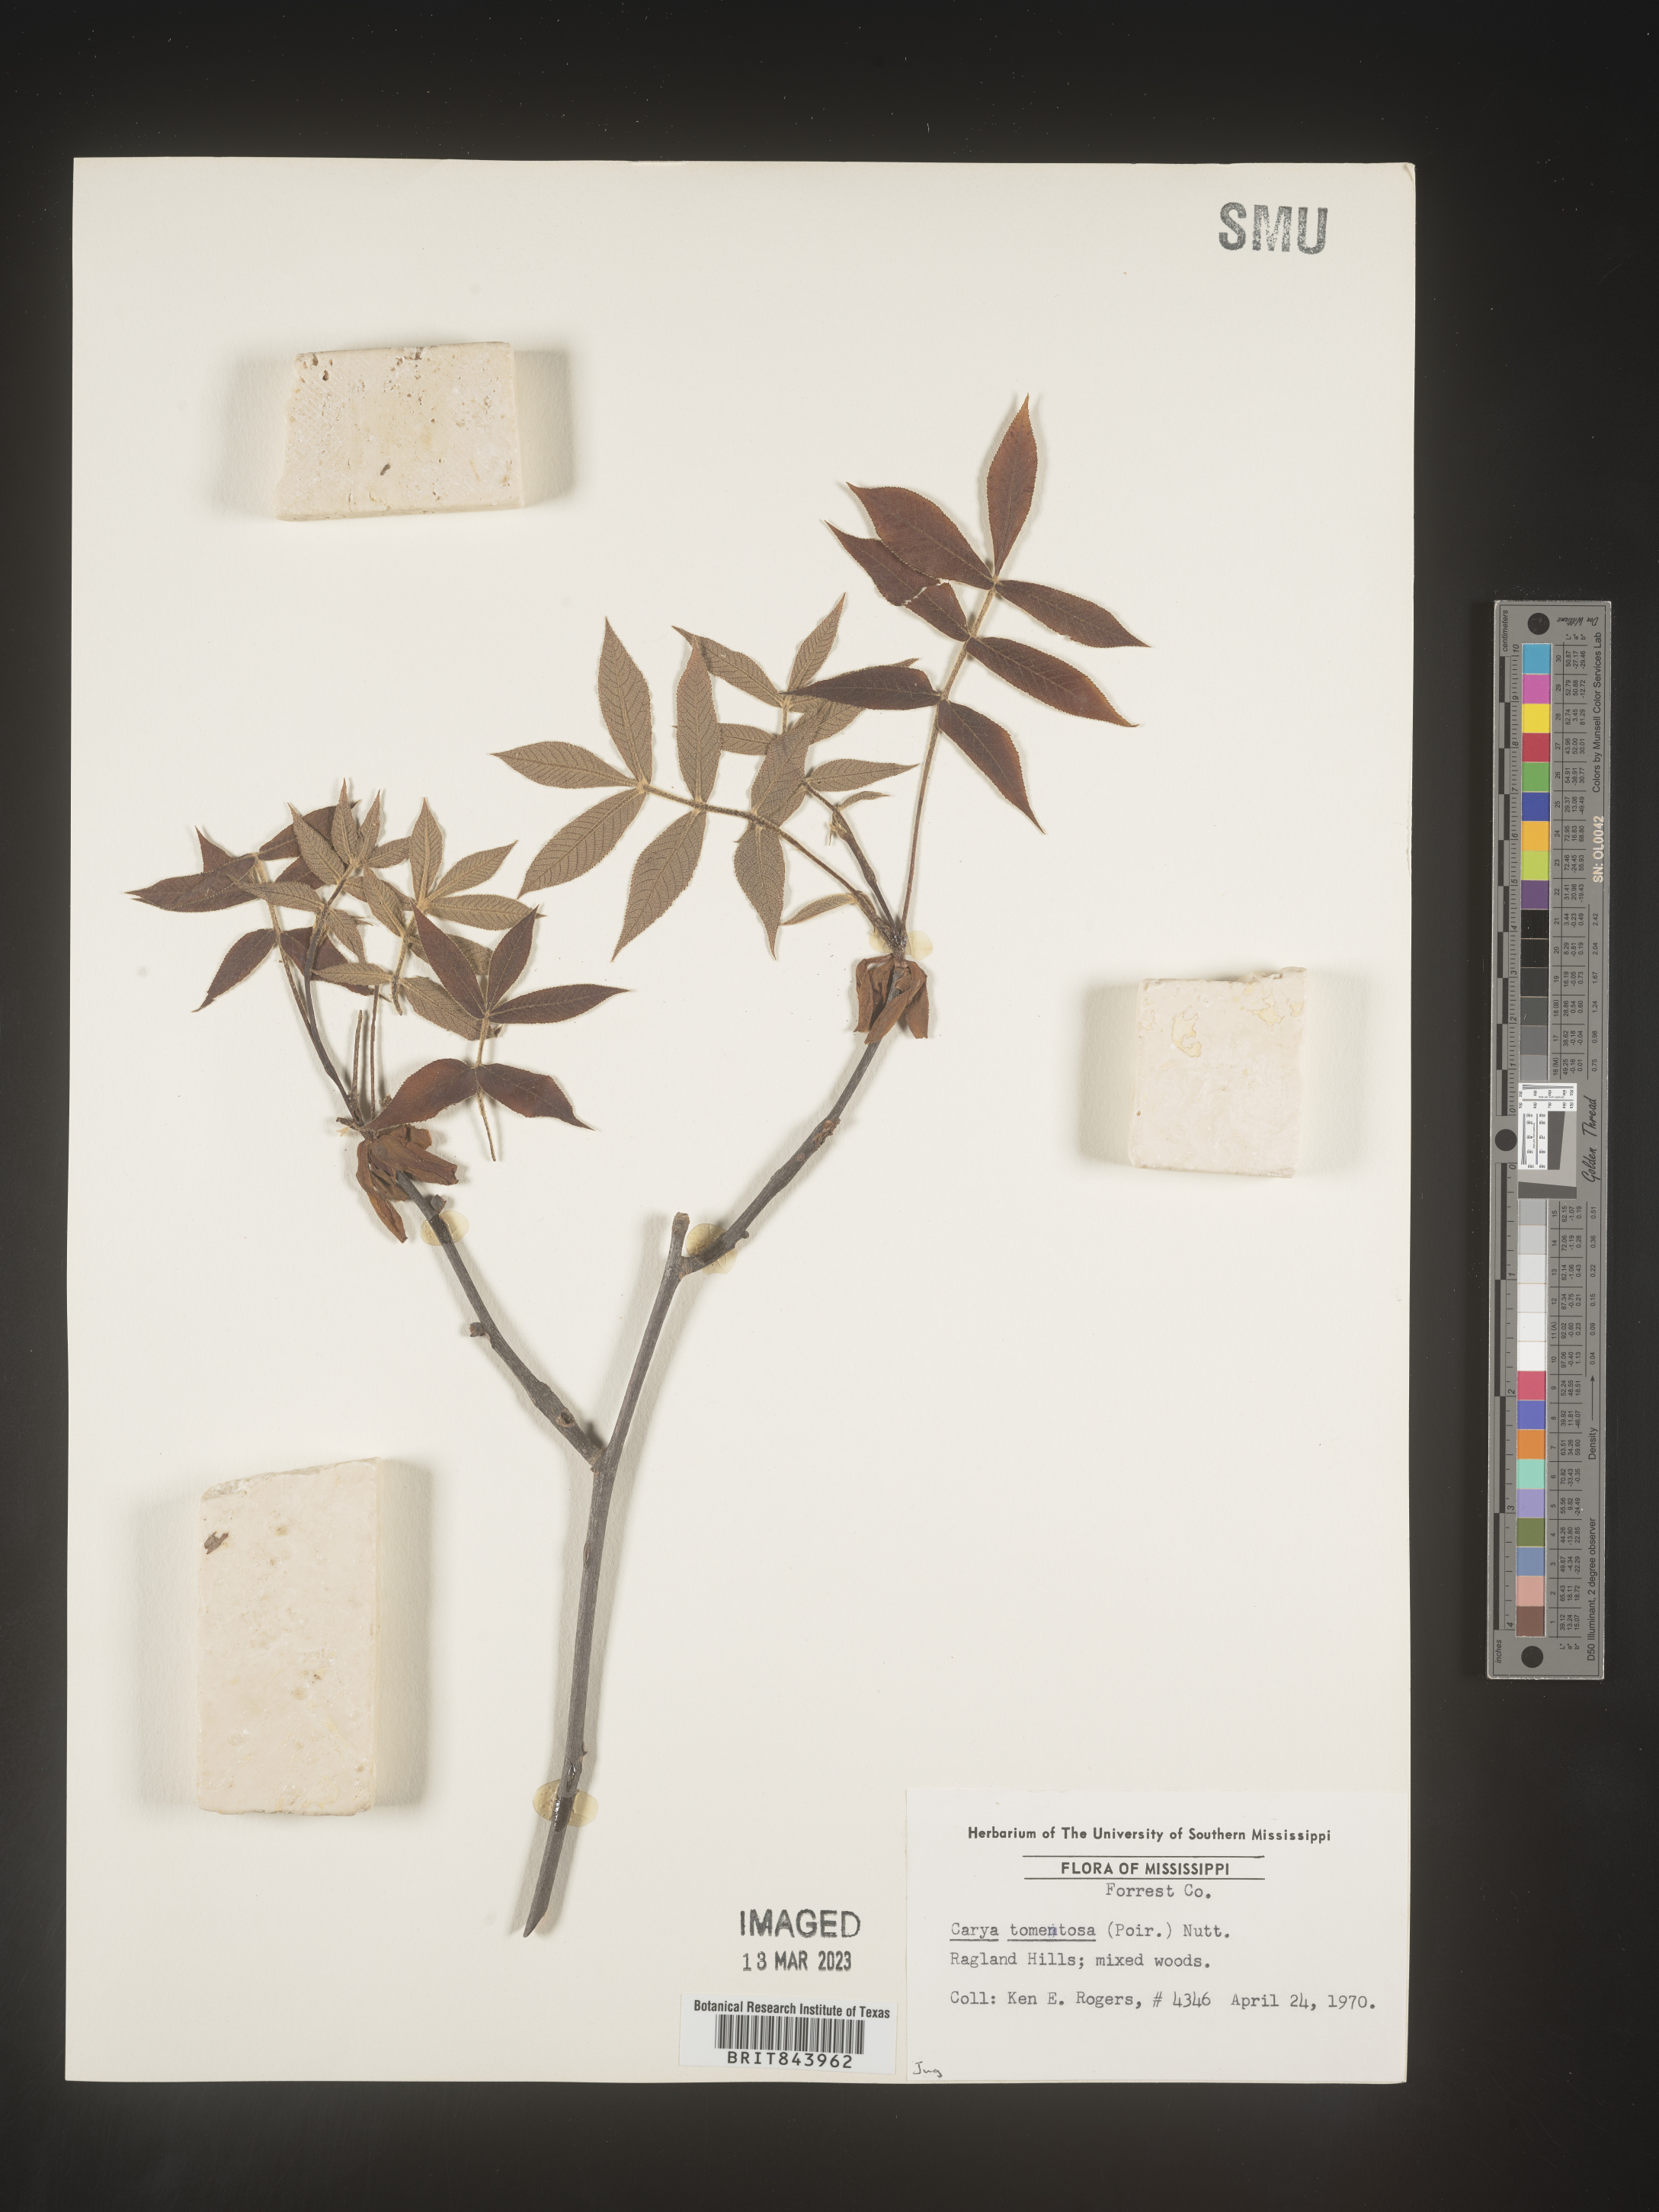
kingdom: Plantae
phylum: Tracheophyta
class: Magnoliopsida
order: Fagales
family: Juglandaceae
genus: Carya
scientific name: Carya alba
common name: Mockernut hickory
